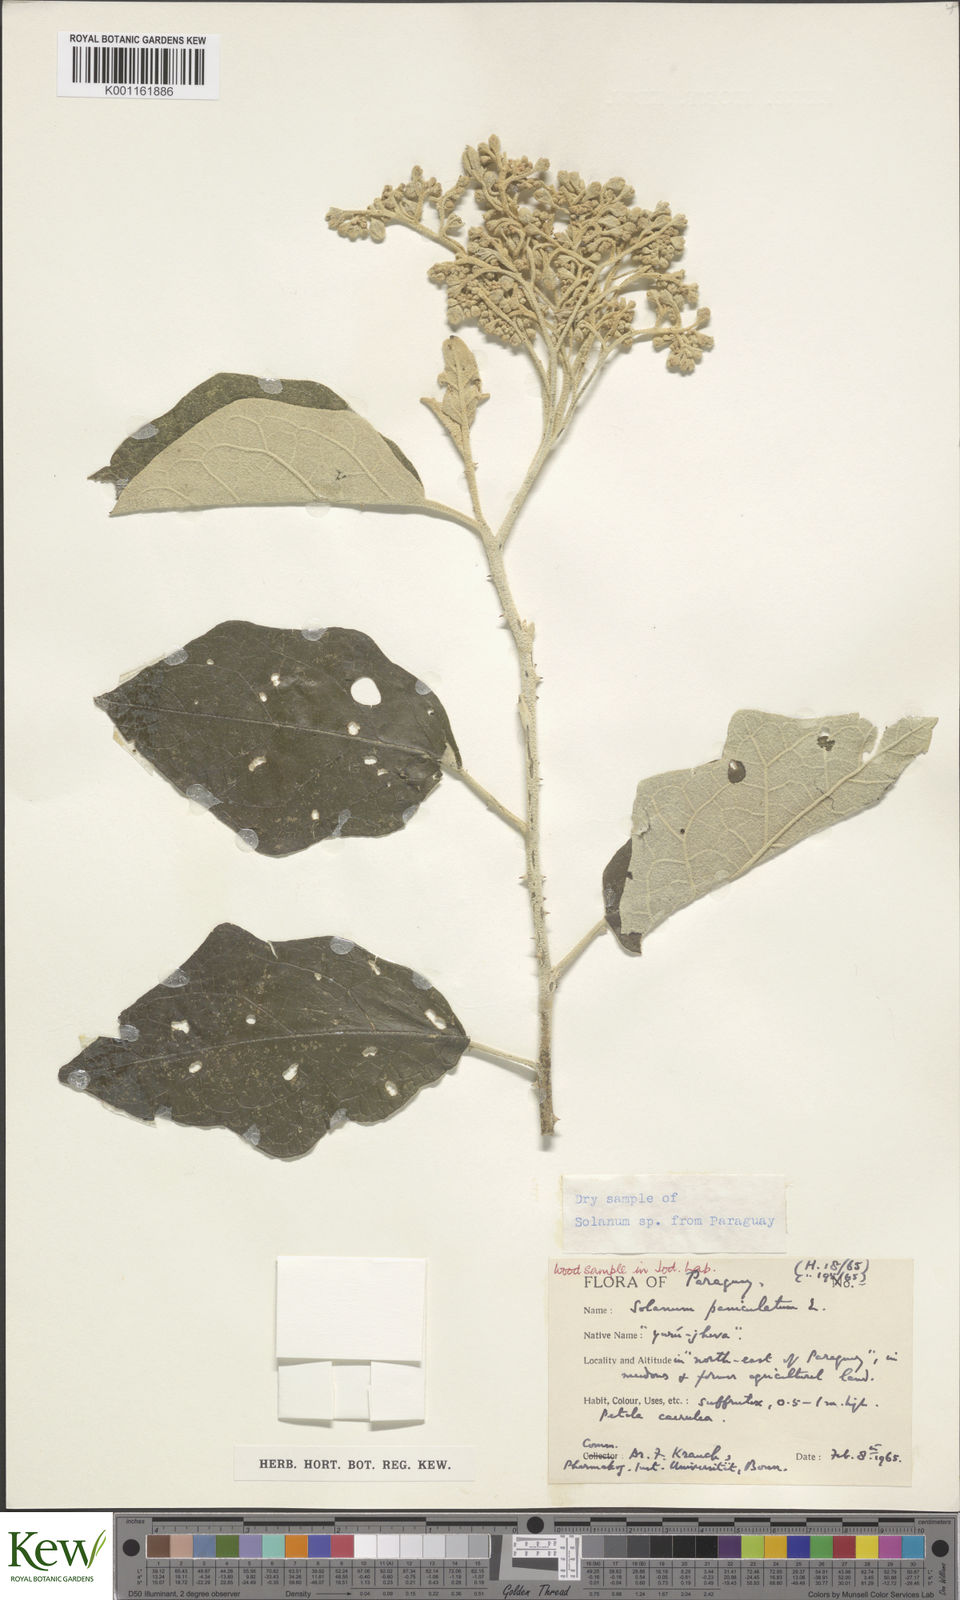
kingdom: Plantae
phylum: Tracheophyta
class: Magnoliopsida
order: Solanales
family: Solanaceae
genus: Solanum
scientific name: Solanum paniculatum
